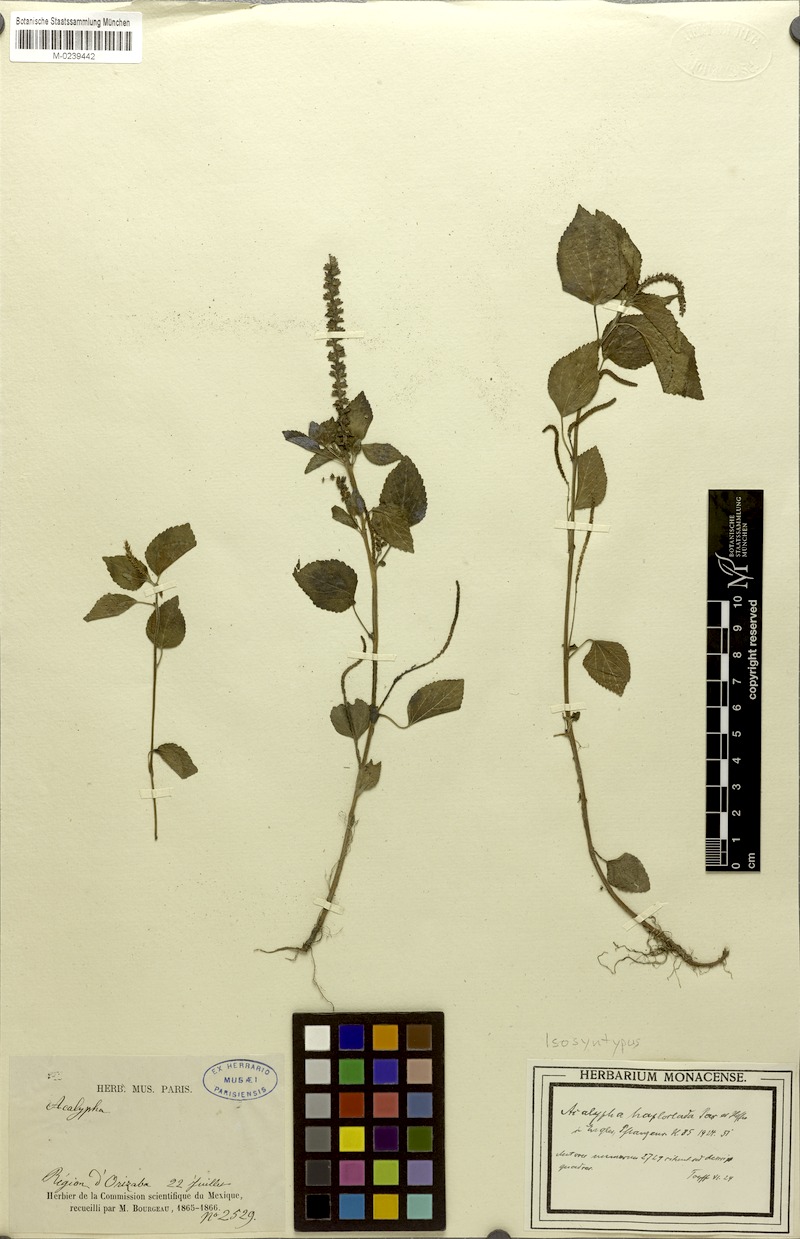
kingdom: Plantae
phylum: Tracheophyta
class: Magnoliopsida
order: Malpighiales
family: Euphorbiaceae
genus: Acalypha
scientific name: Acalypha haploclada
